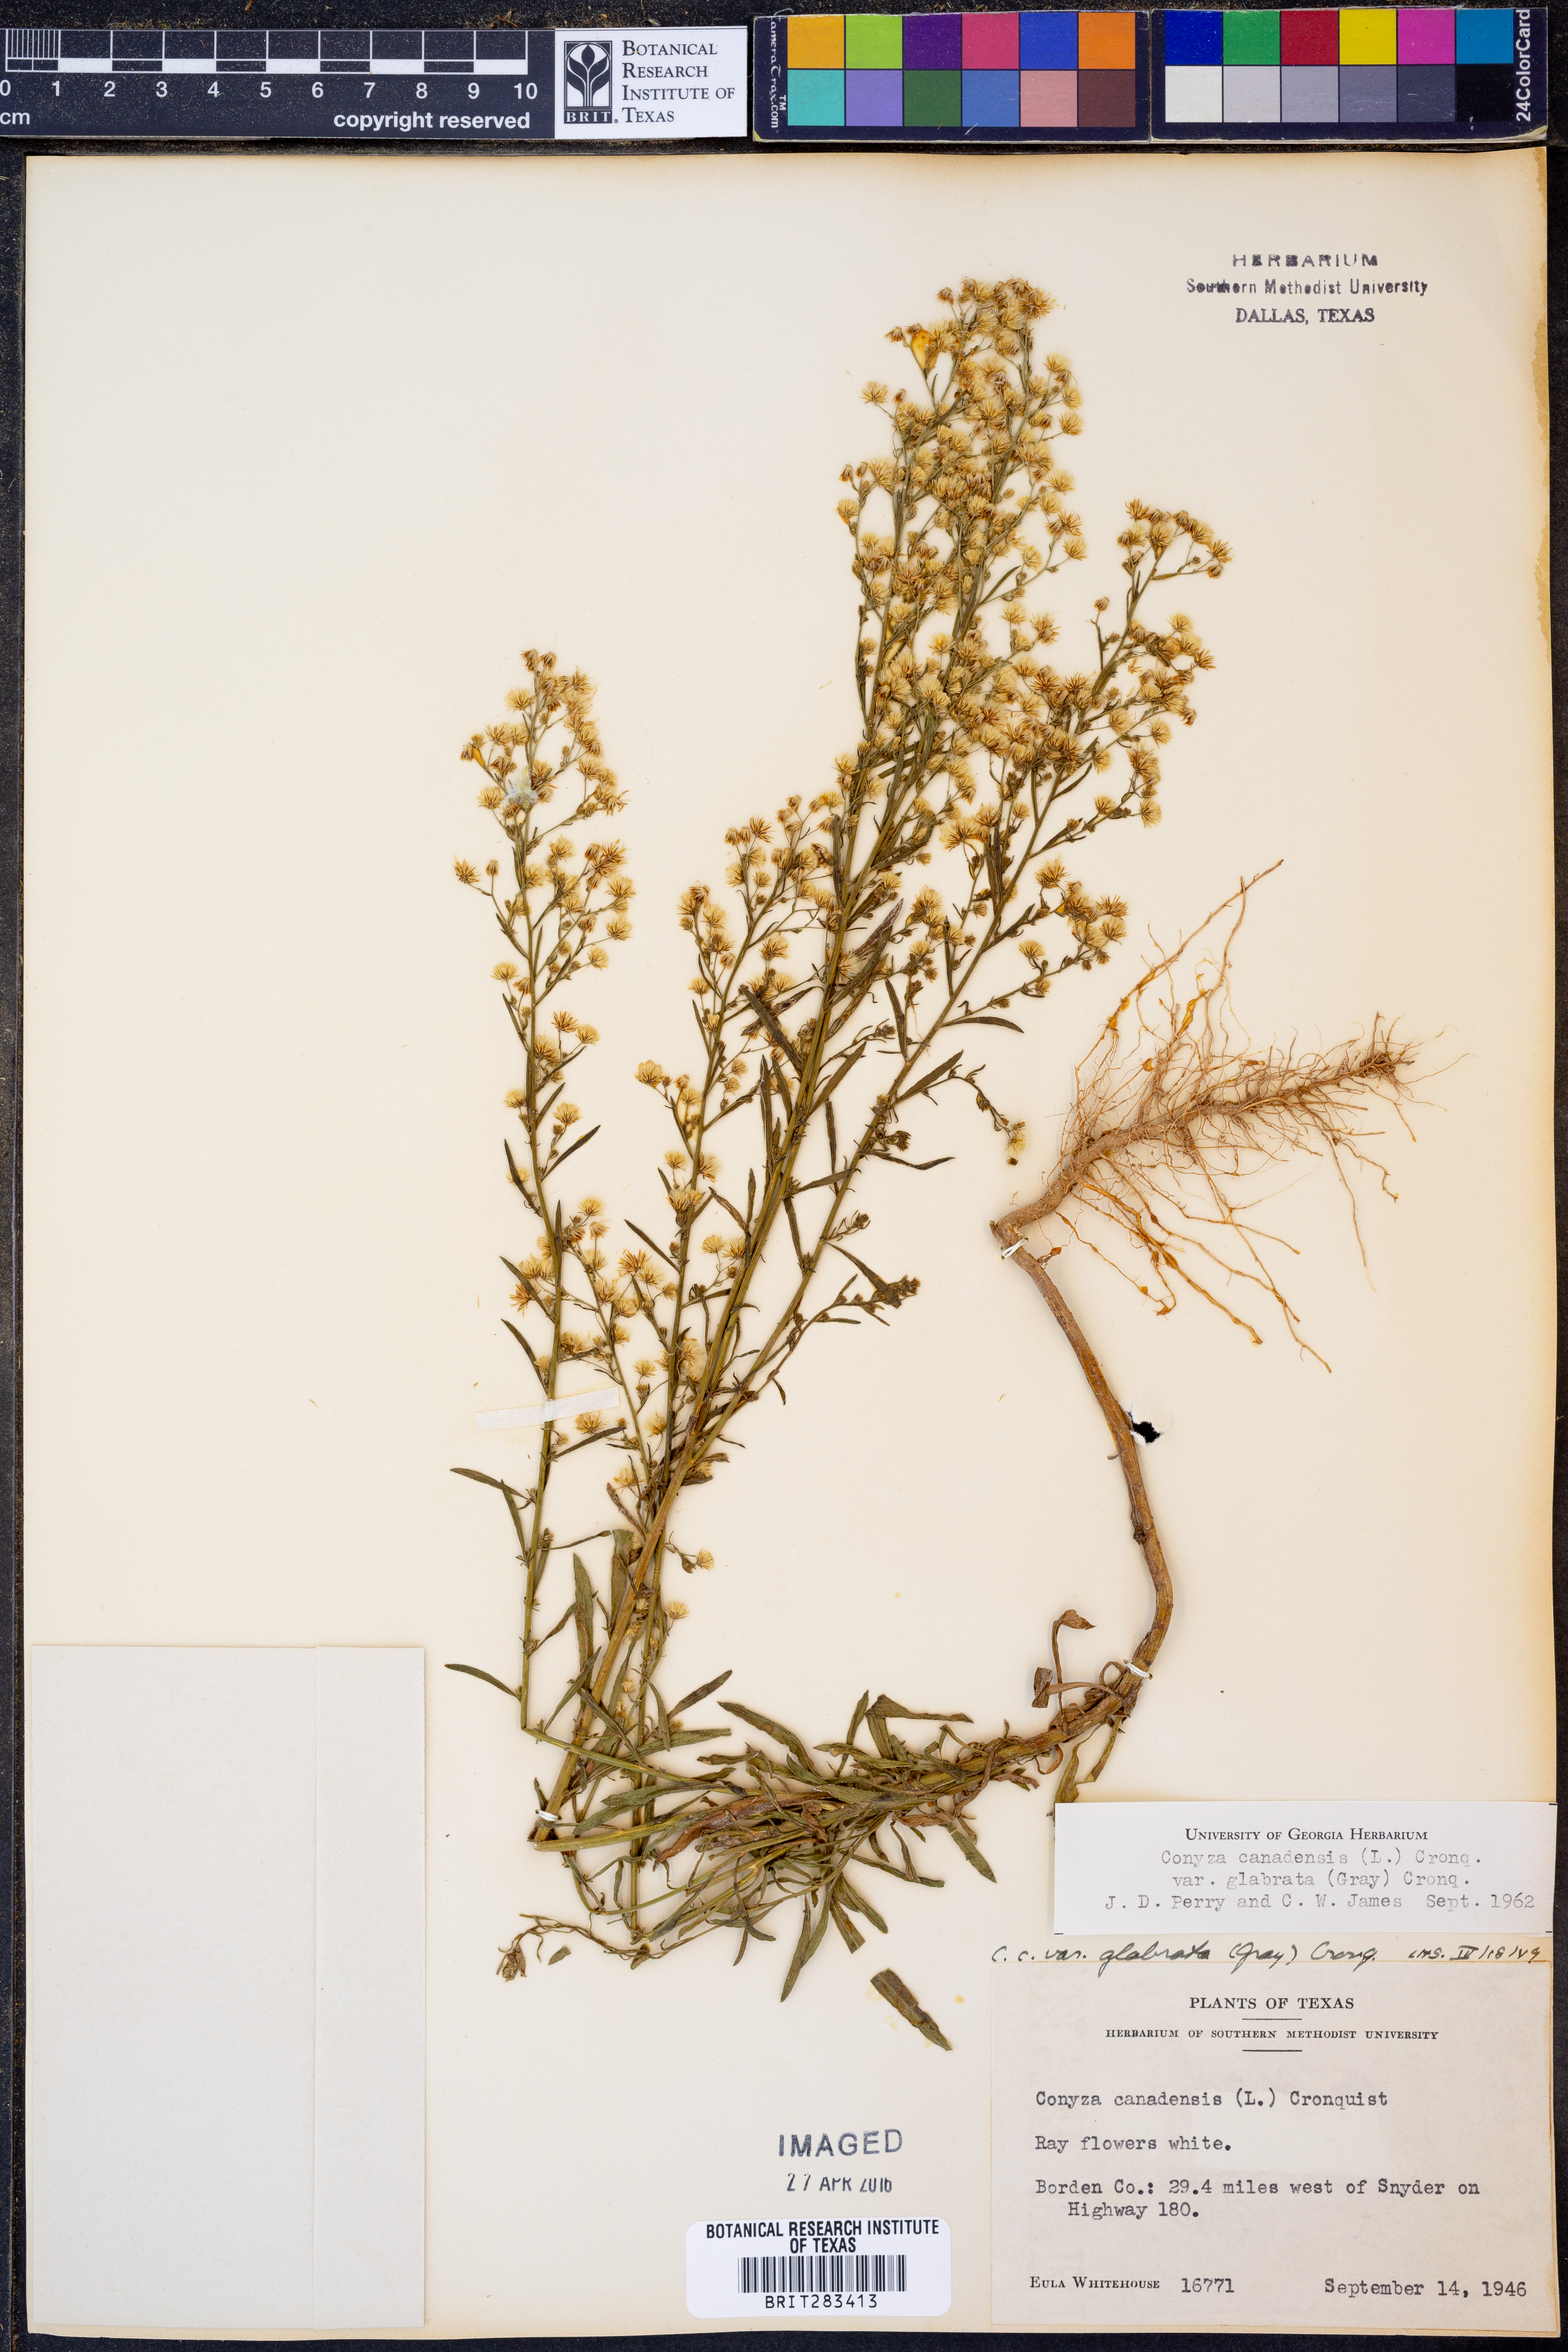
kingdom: Plantae
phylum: Tracheophyta
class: Magnoliopsida
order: Asterales
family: Asteraceae
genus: Erigeron
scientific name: Erigeron canadensis
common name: Canadian fleabane
